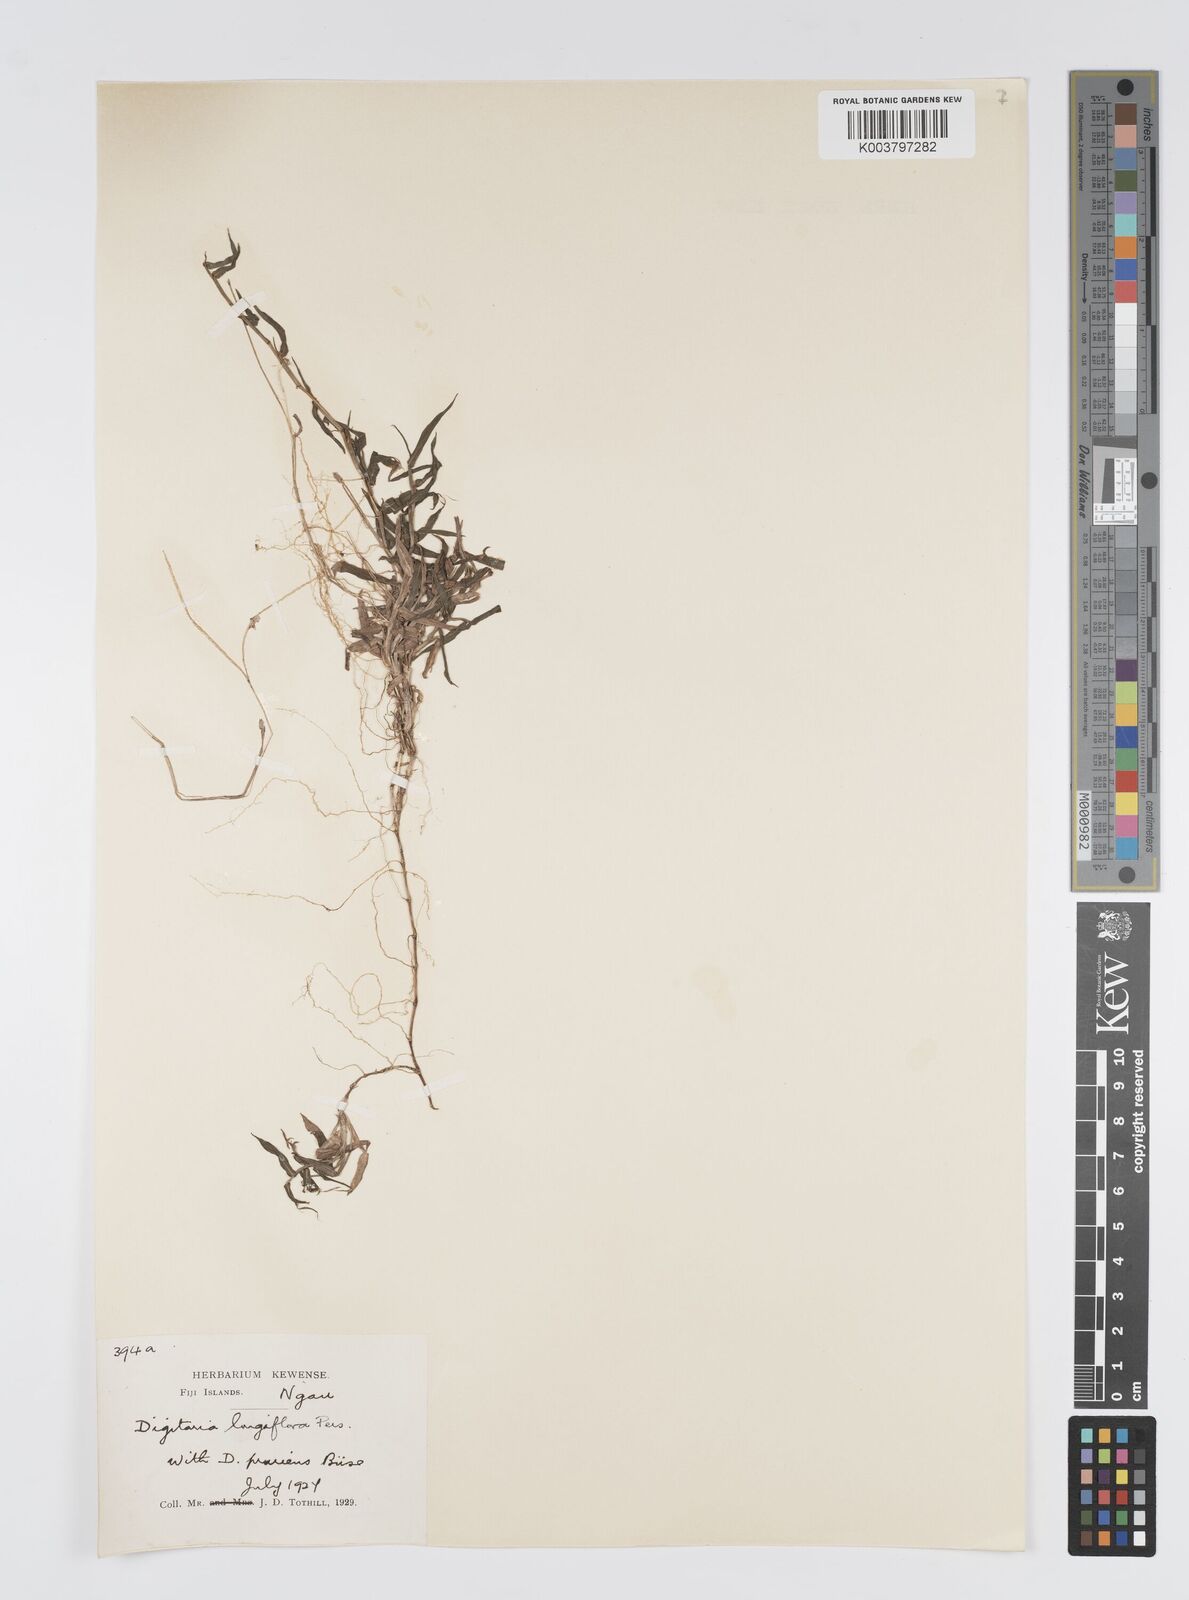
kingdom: Plantae
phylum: Tracheophyta
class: Liliopsida
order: Poales
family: Poaceae
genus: Digitaria
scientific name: Digitaria fuscescens
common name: Yellow crabgrass
